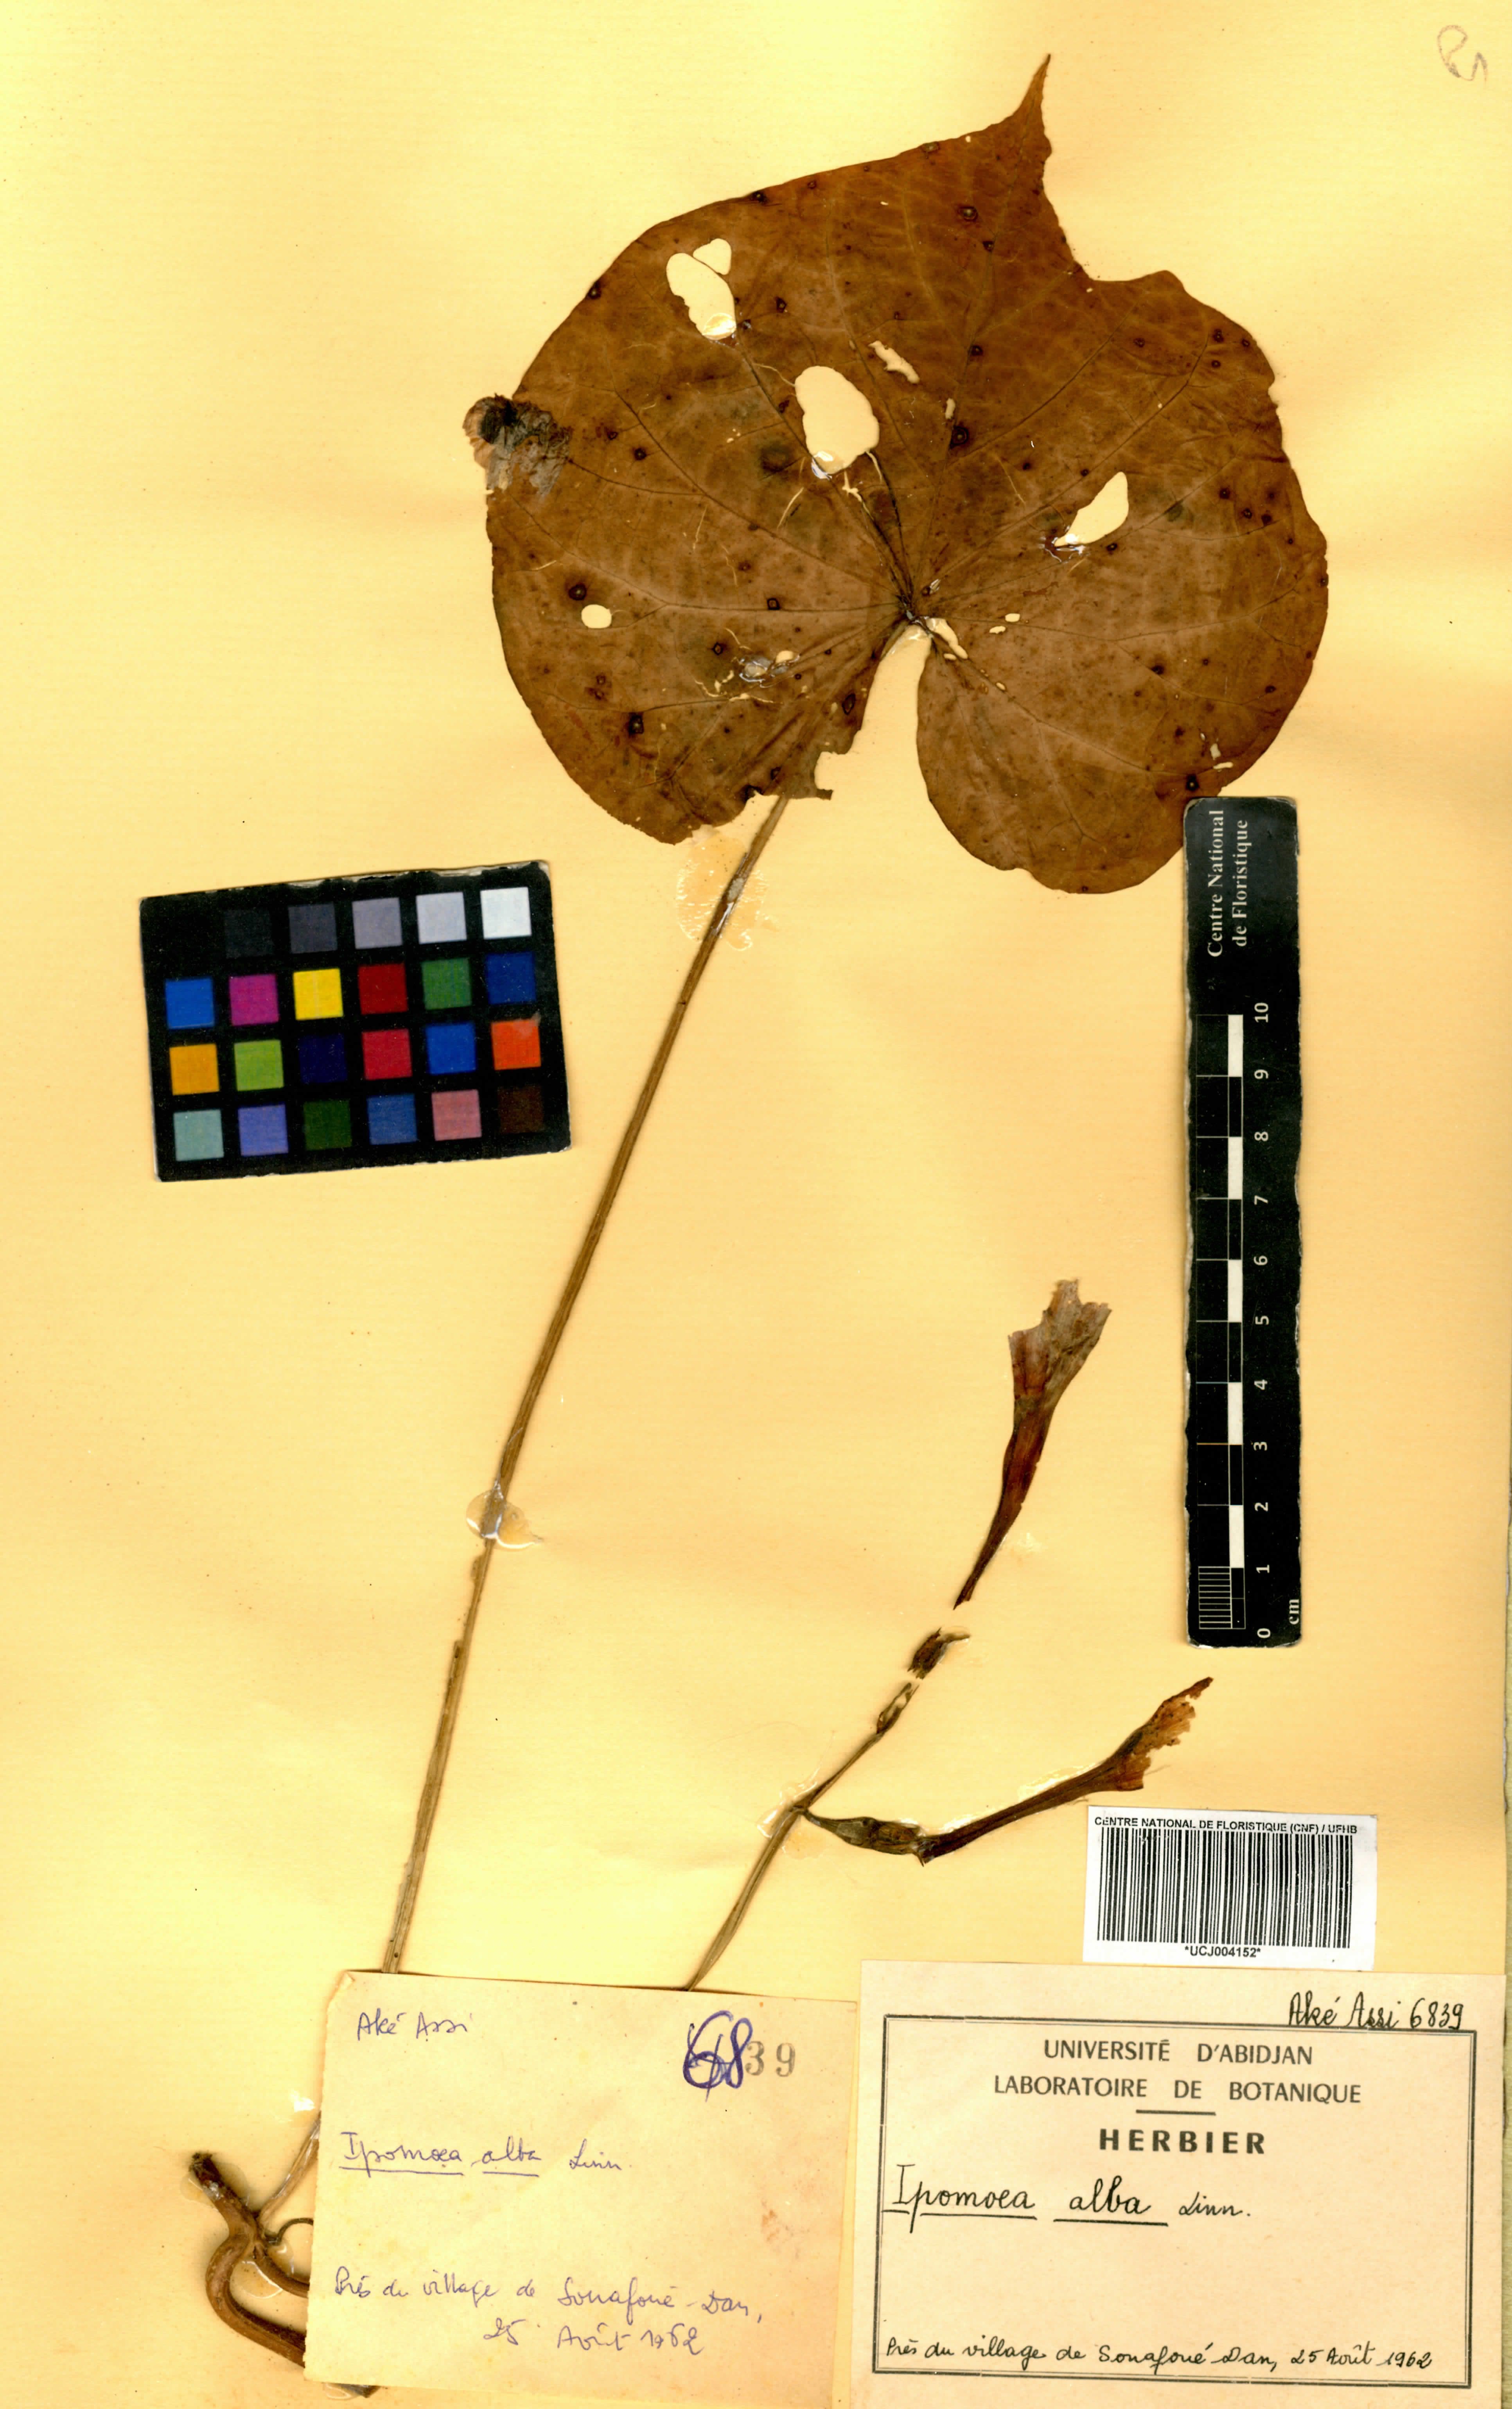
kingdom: Plantae
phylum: Tracheophyta
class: Magnoliopsida
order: Solanales
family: Convolvulaceae
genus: Ipomoea
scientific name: Ipomoea alba
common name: Moonflower
